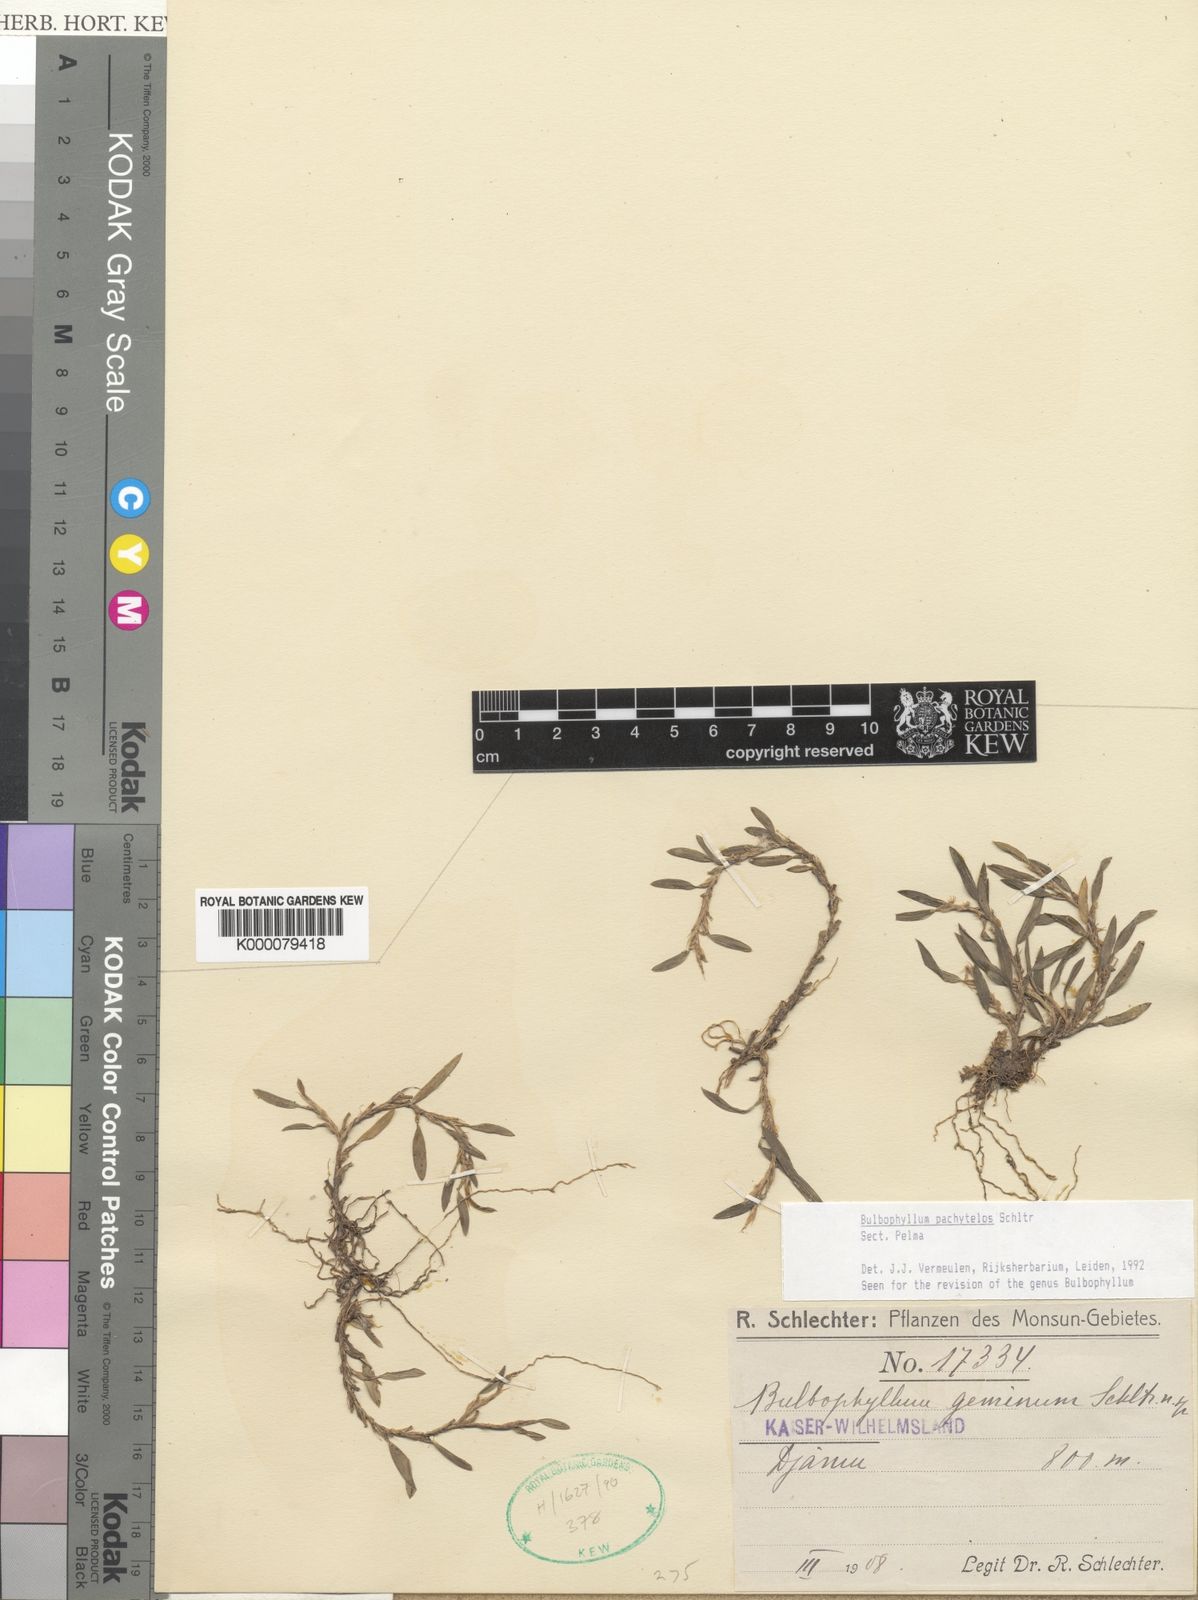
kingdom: Plantae
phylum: Tracheophyta
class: Liliopsida
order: Asparagales
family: Orchidaceae
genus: Bulbophyllum
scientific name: Bulbophyllum pachytelos
